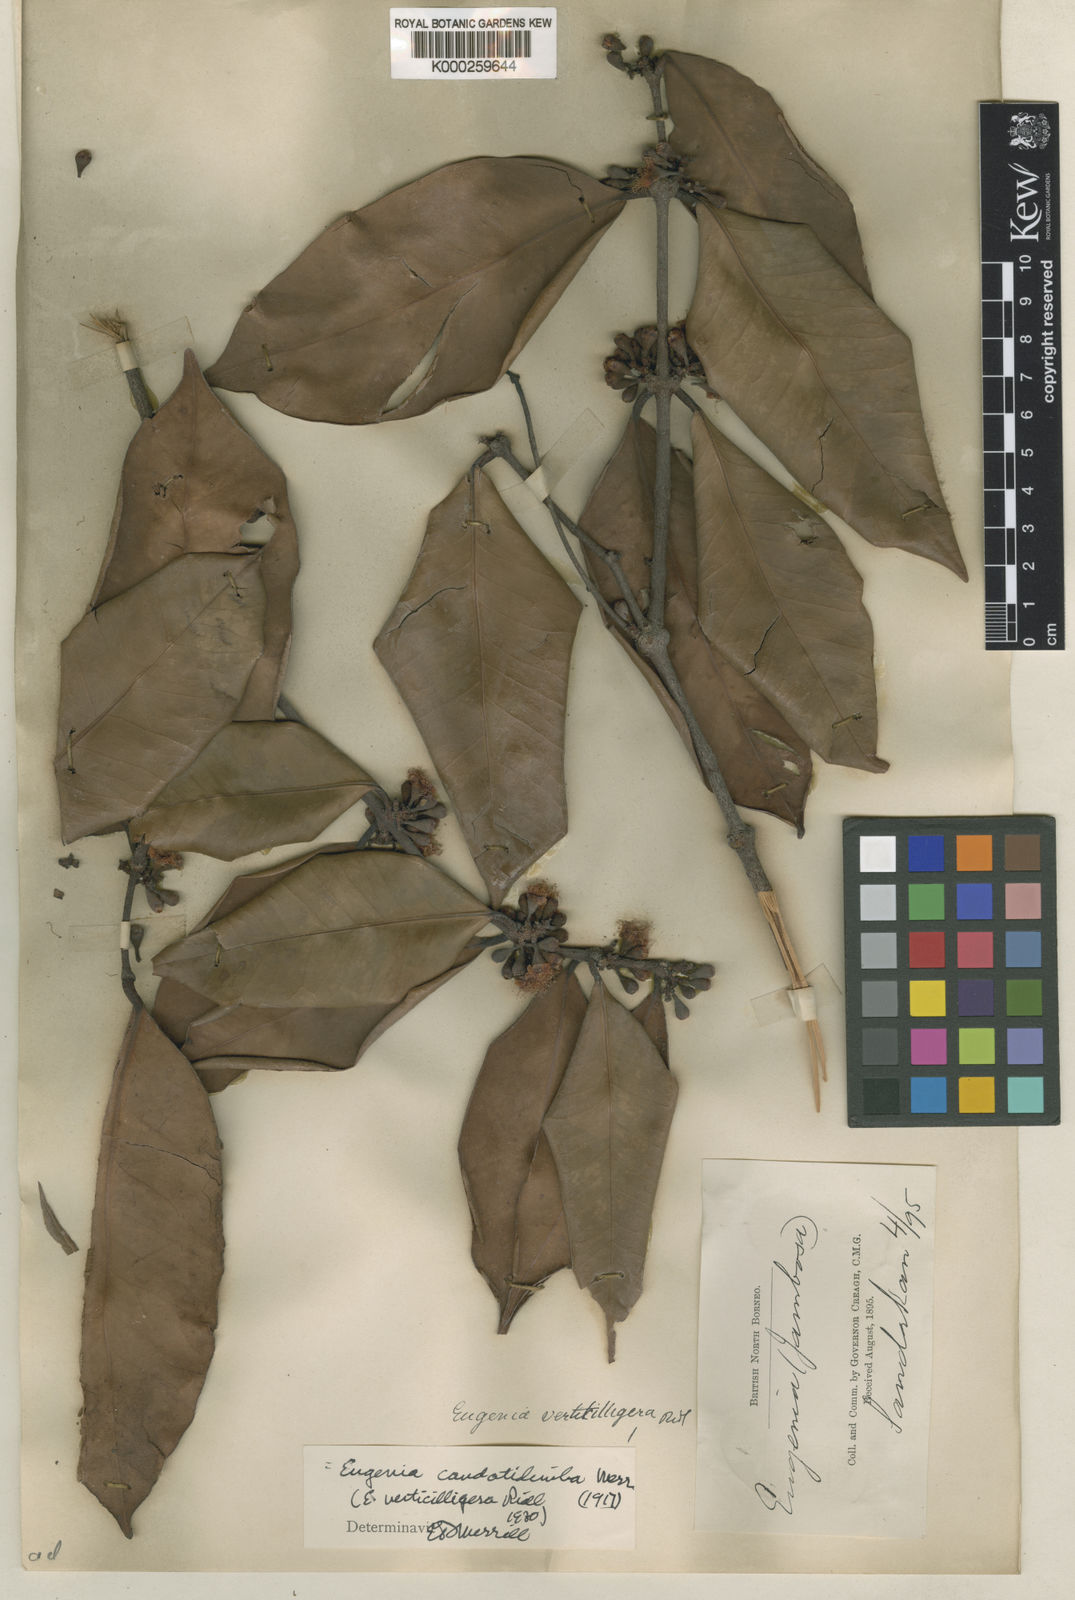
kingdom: Plantae
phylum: Tracheophyta
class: Magnoliopsida
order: Myrtales
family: Myrtaceae
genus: Syzygium
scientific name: Syzygium caudatilimbum
